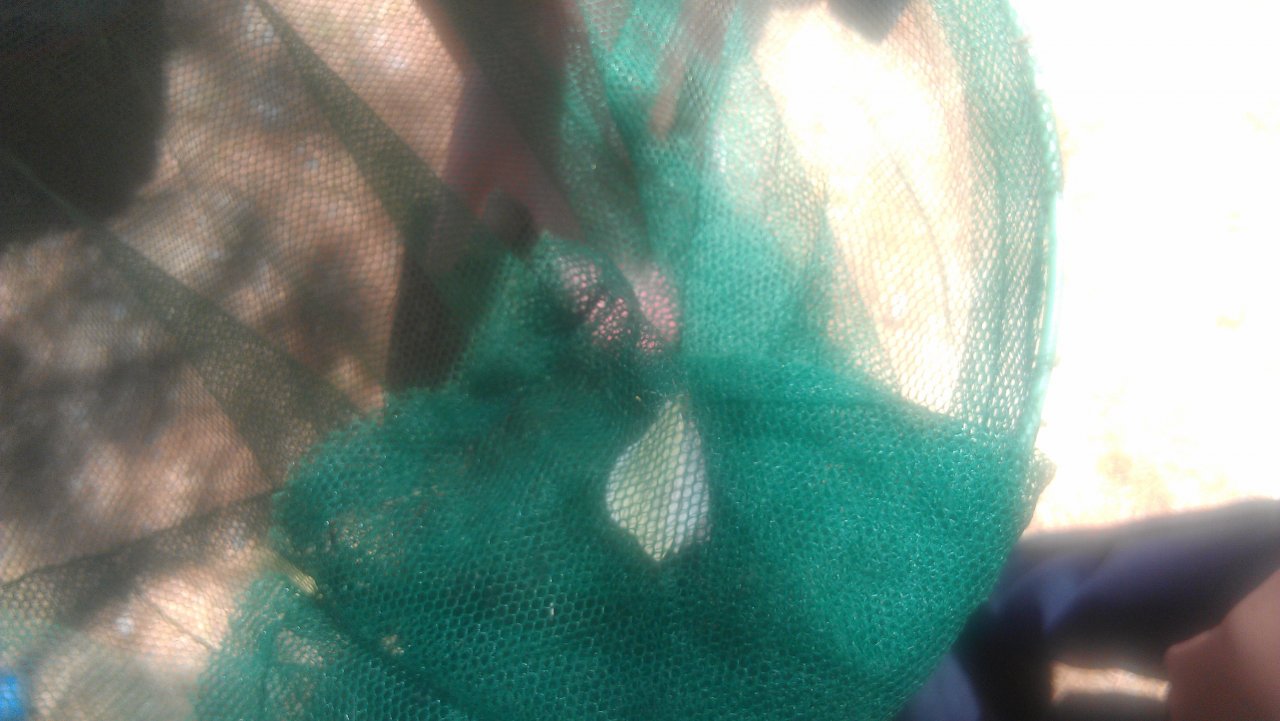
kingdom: Animalia
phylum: Arthropoda
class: Insecta
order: Lepidoptera
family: Pieridae
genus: Pieris
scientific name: Pieris rapae
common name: Cabbage White
